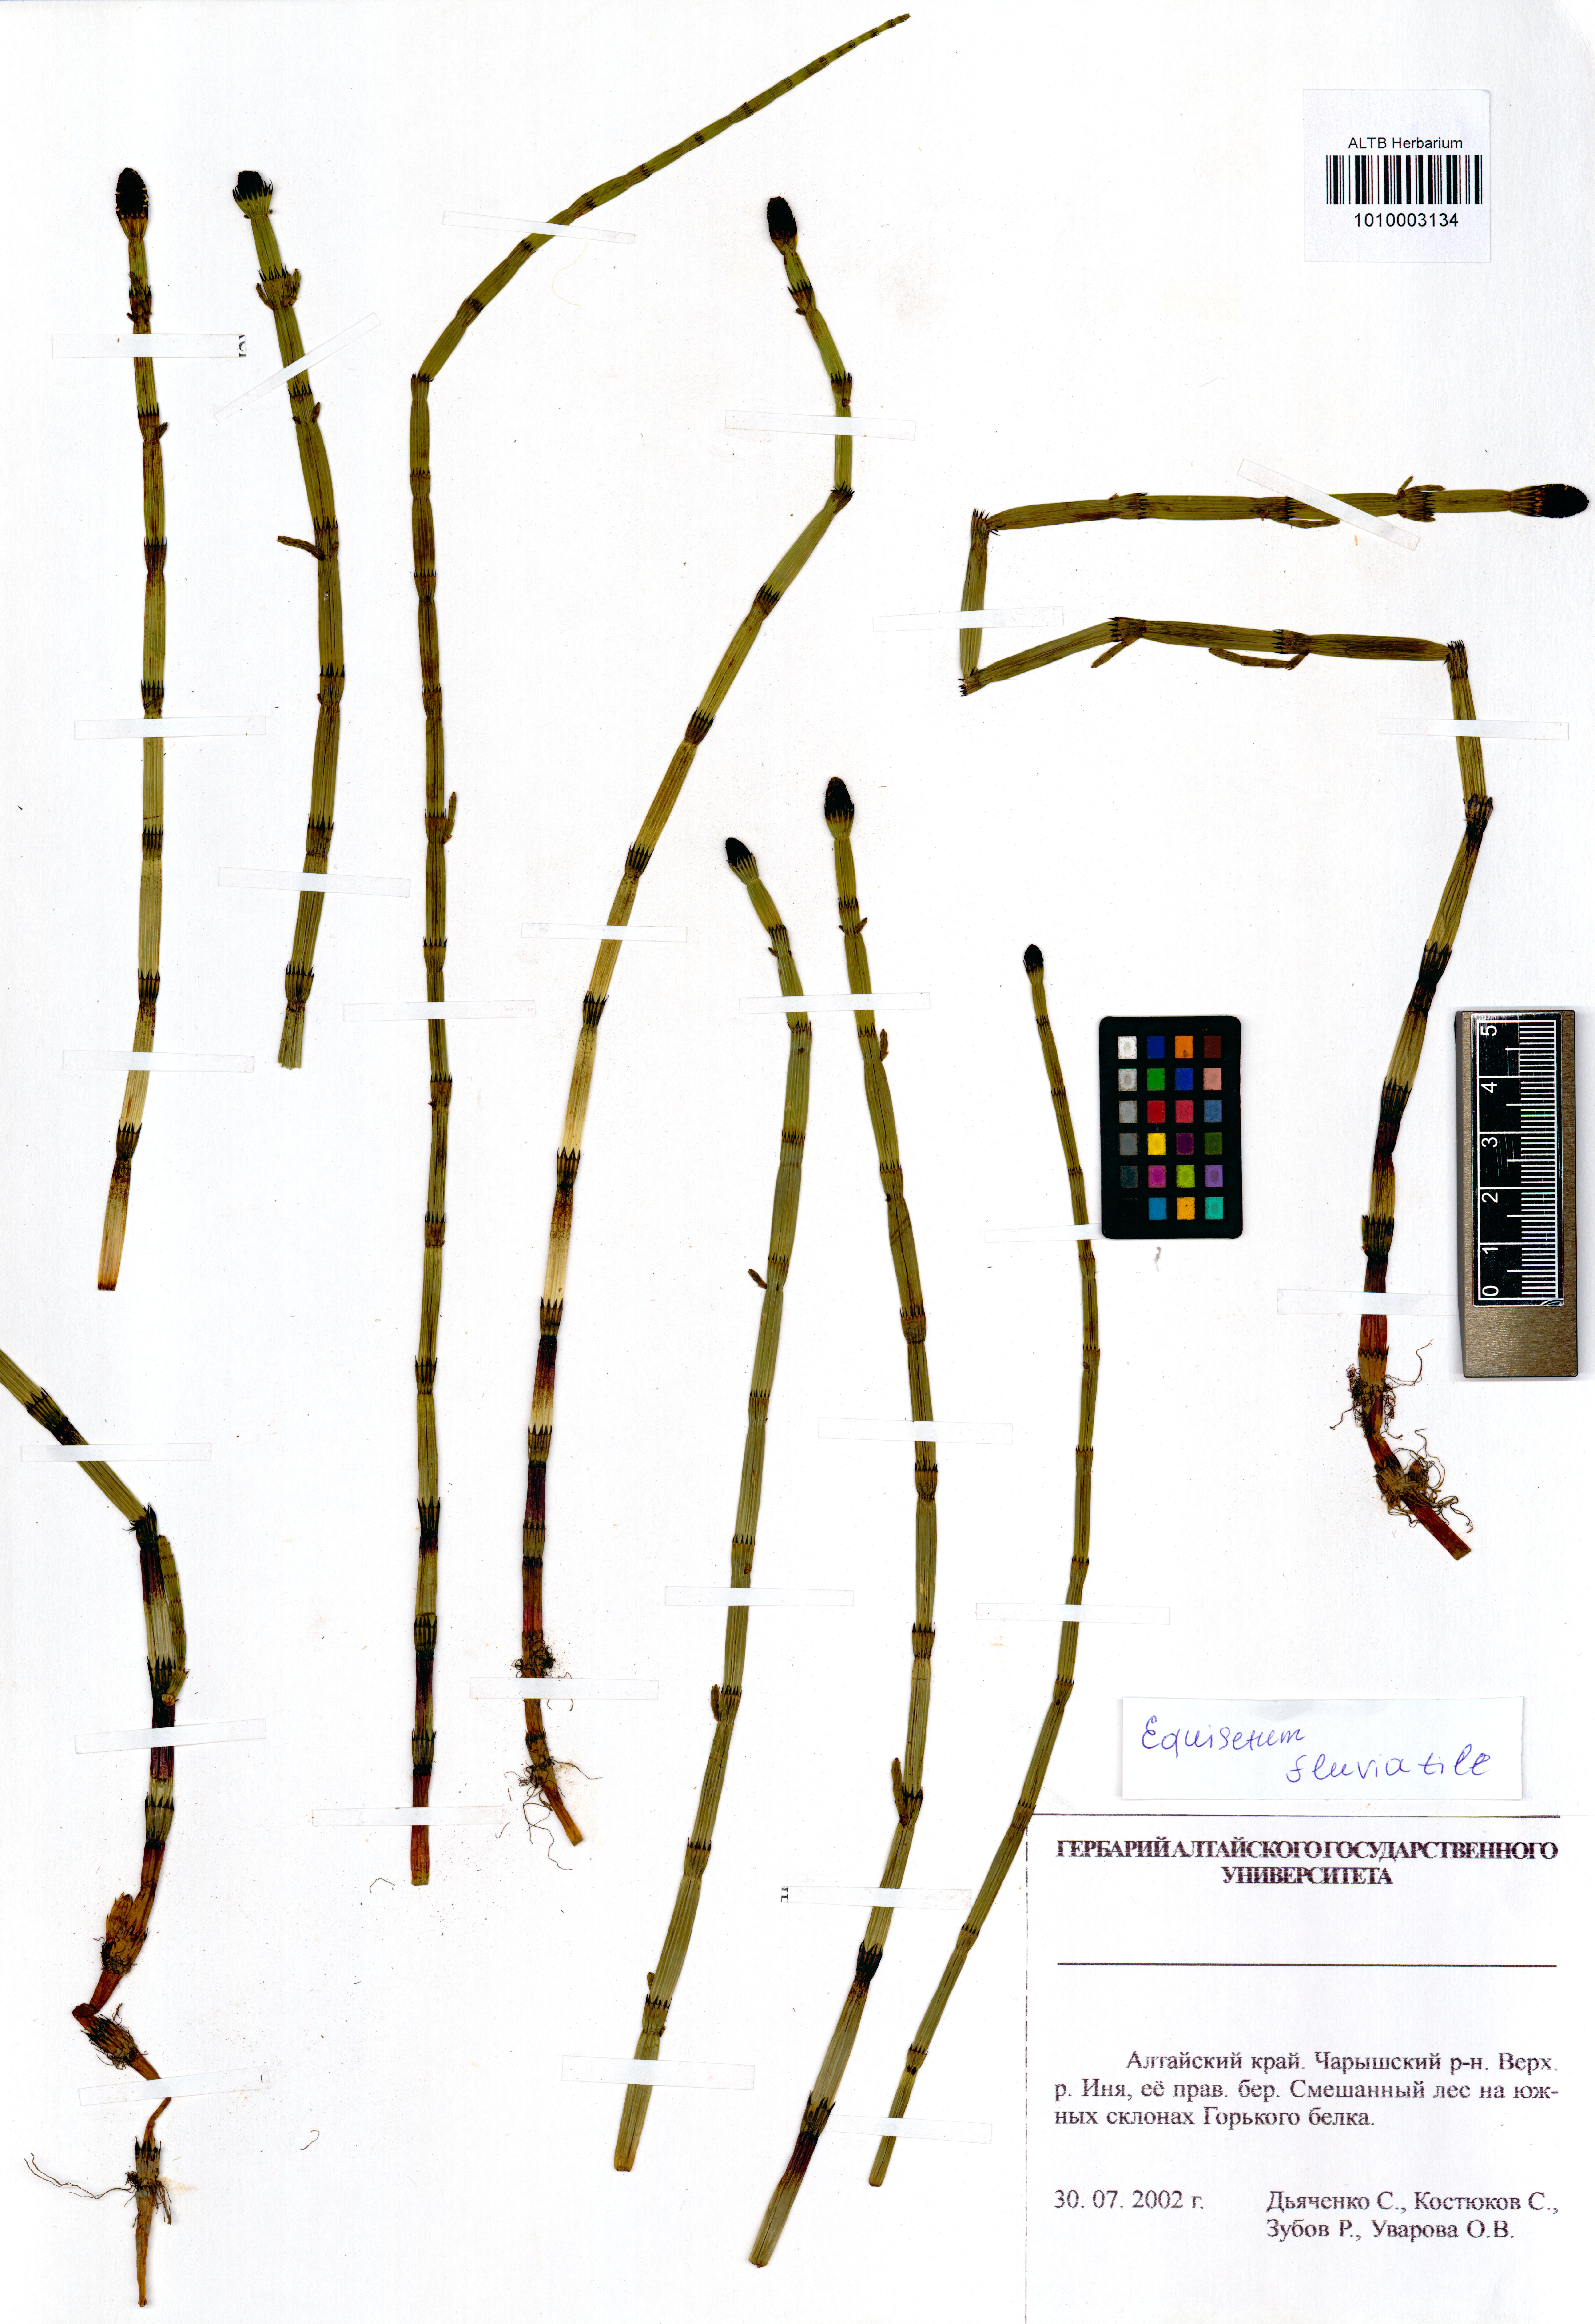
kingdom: Plantae
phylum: Tracheophyta
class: Polypodiopsida
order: Equisetales
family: Equisetaceae
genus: Equisetum
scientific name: Equisetum fluviatile
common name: Water horsetail
